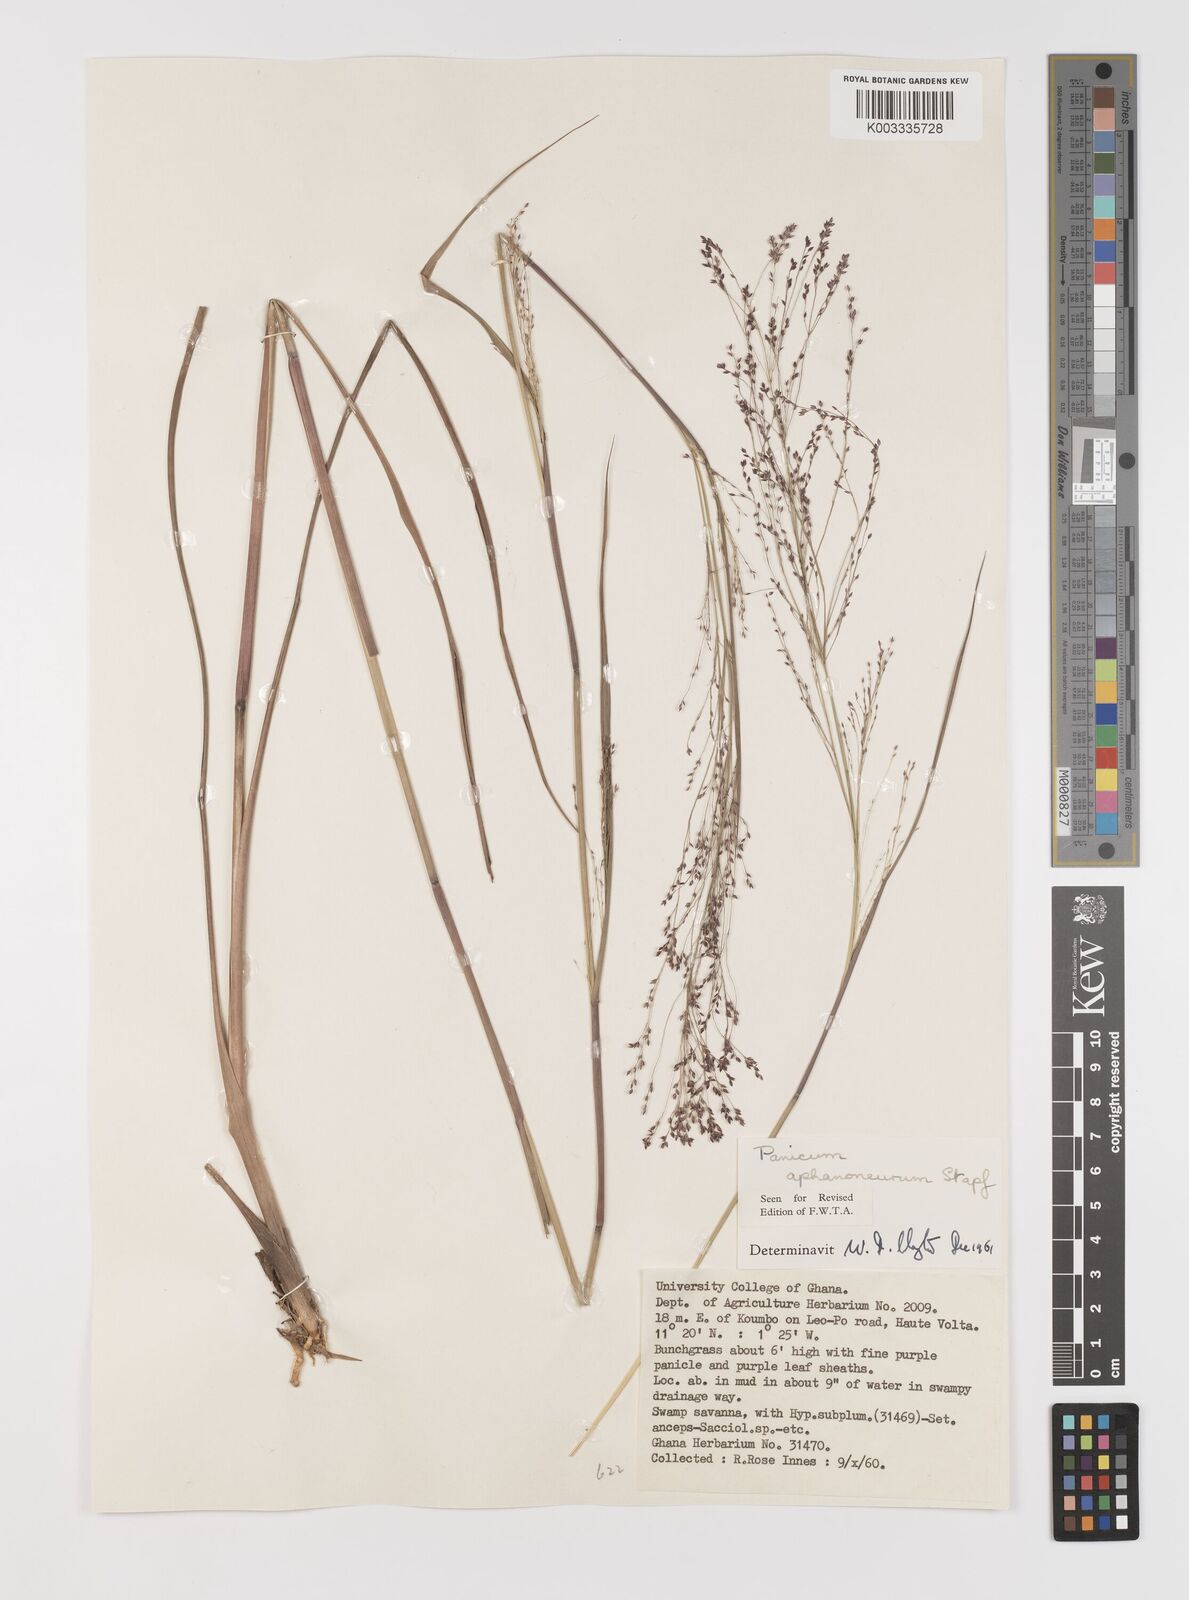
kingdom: Plantae
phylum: Tracheophyta
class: Liliopsida
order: Poales
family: Poaceae
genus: Panicum
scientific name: Panicum fluviicola
